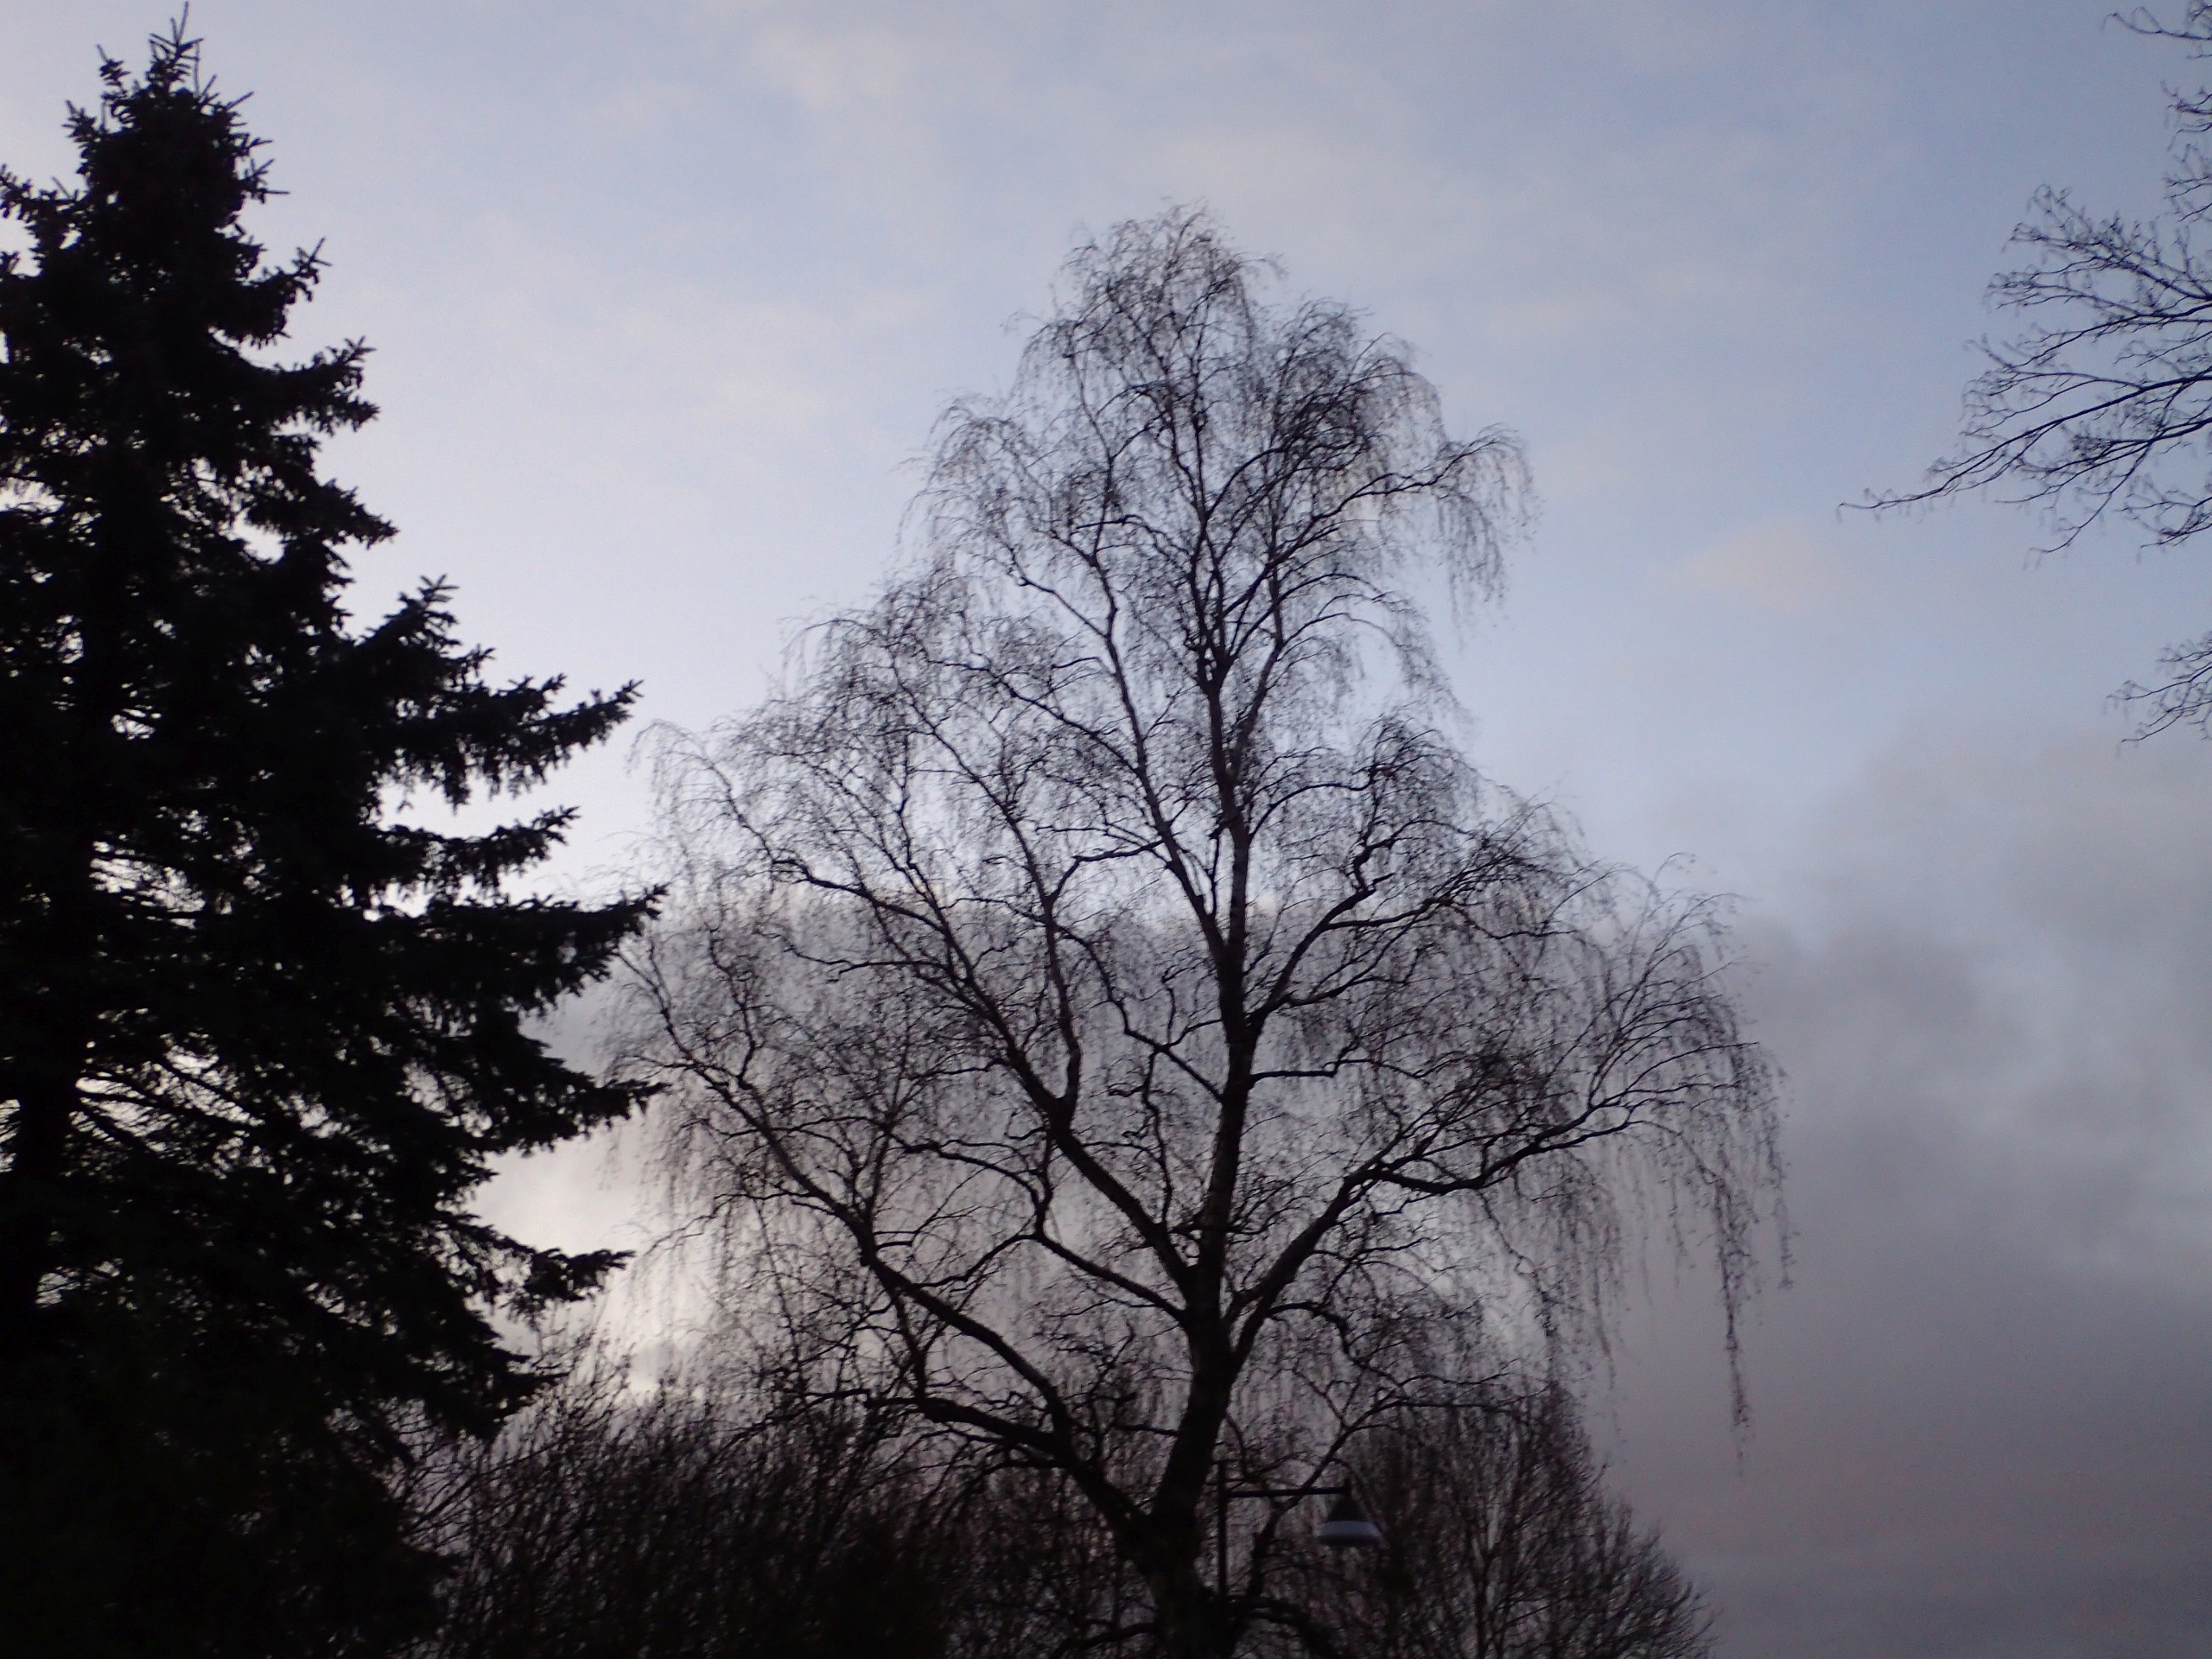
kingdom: Plantae
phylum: Tracheophyta
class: Magnoliopsida
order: Fagales
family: Betulaceae
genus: Betula
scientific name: Betula pendula
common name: Vorte-birk
